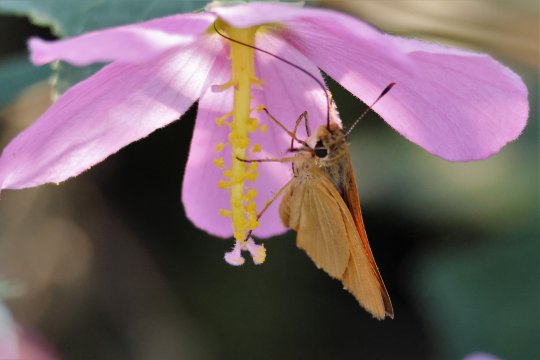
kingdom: Animalia
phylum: Arthropoda
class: Insecta
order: Lepidoptera
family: Hesperiidae
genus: Atrytone
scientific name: Atrytone delaware
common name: Delaware Skipper
